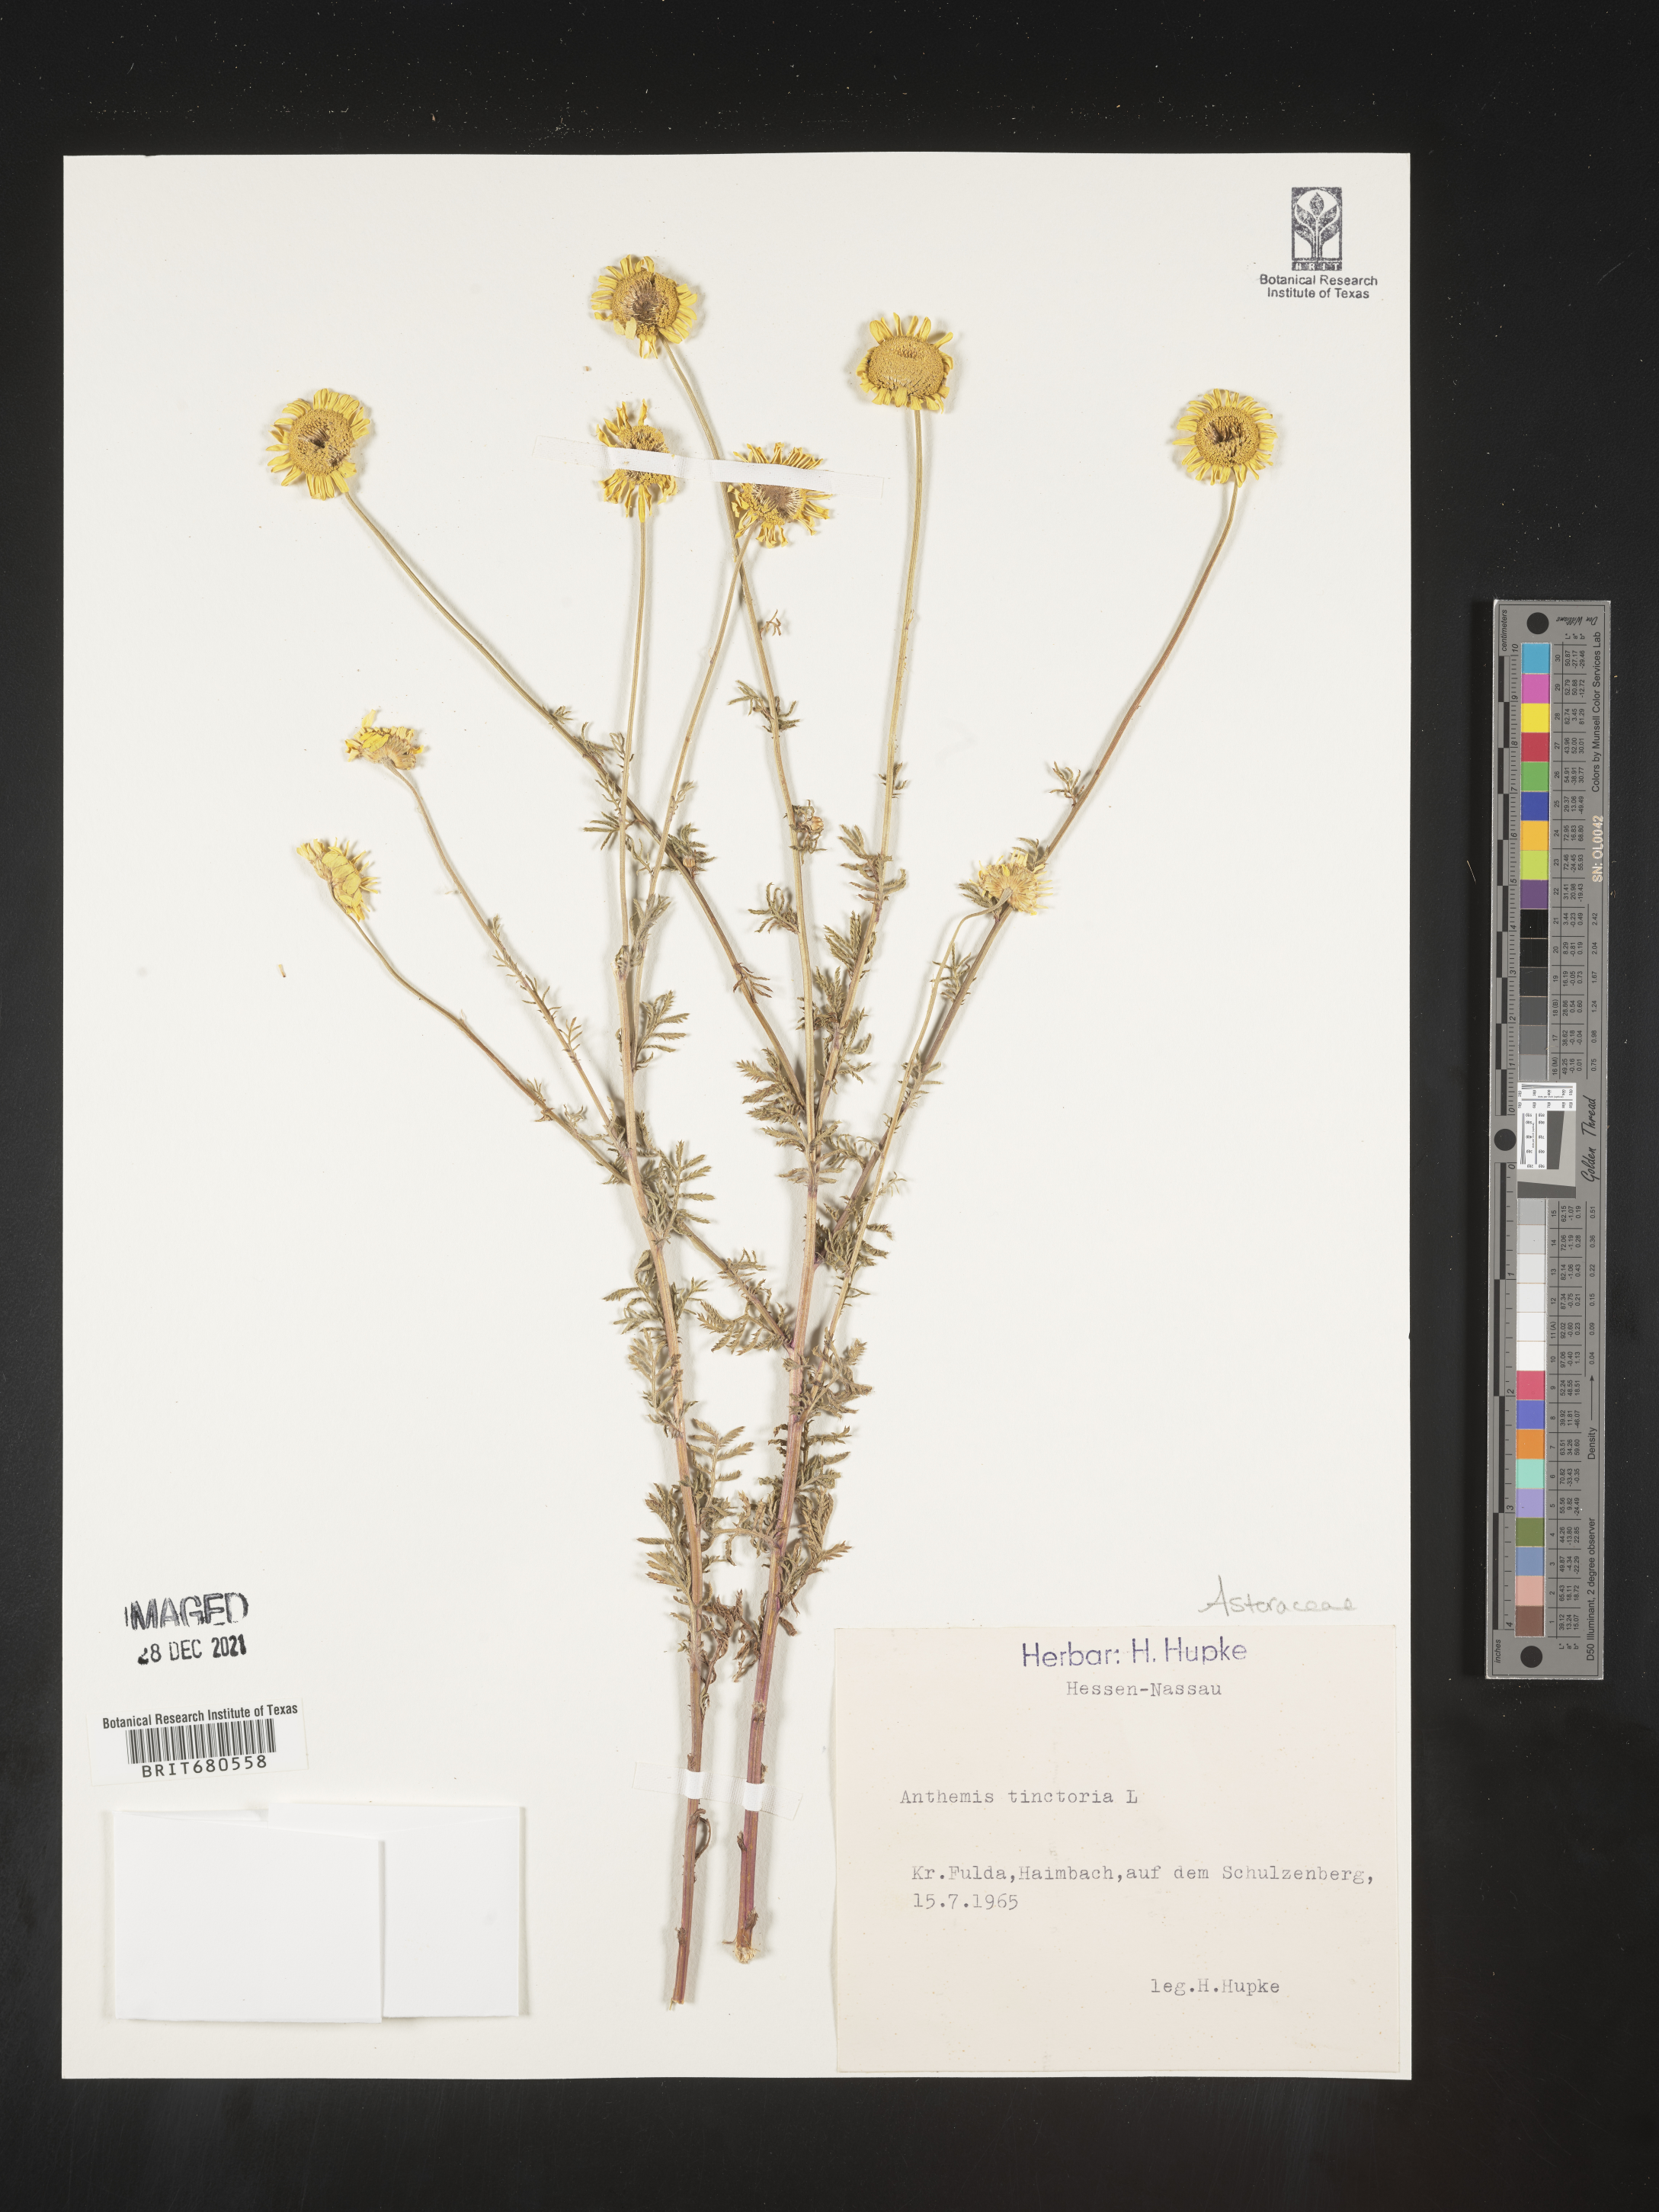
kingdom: Plantae
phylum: Tracheophyta
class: Magnoliopsida
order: Asterales
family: Asteraceae
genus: Anthemis
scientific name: Anthemis
